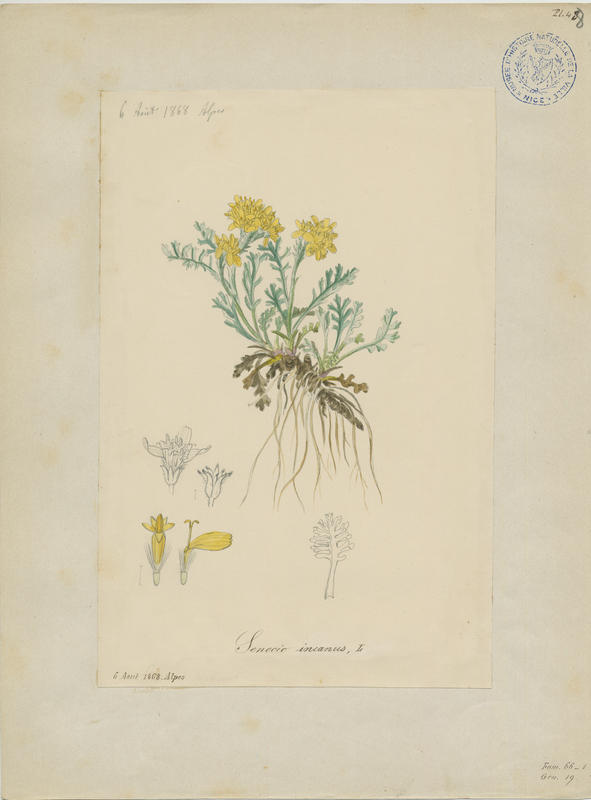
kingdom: Plantae
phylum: Tracheophyta
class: Magnoliopsida
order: Asterales
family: Asteraceae
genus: Jacobaea
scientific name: Jacobaea incana
